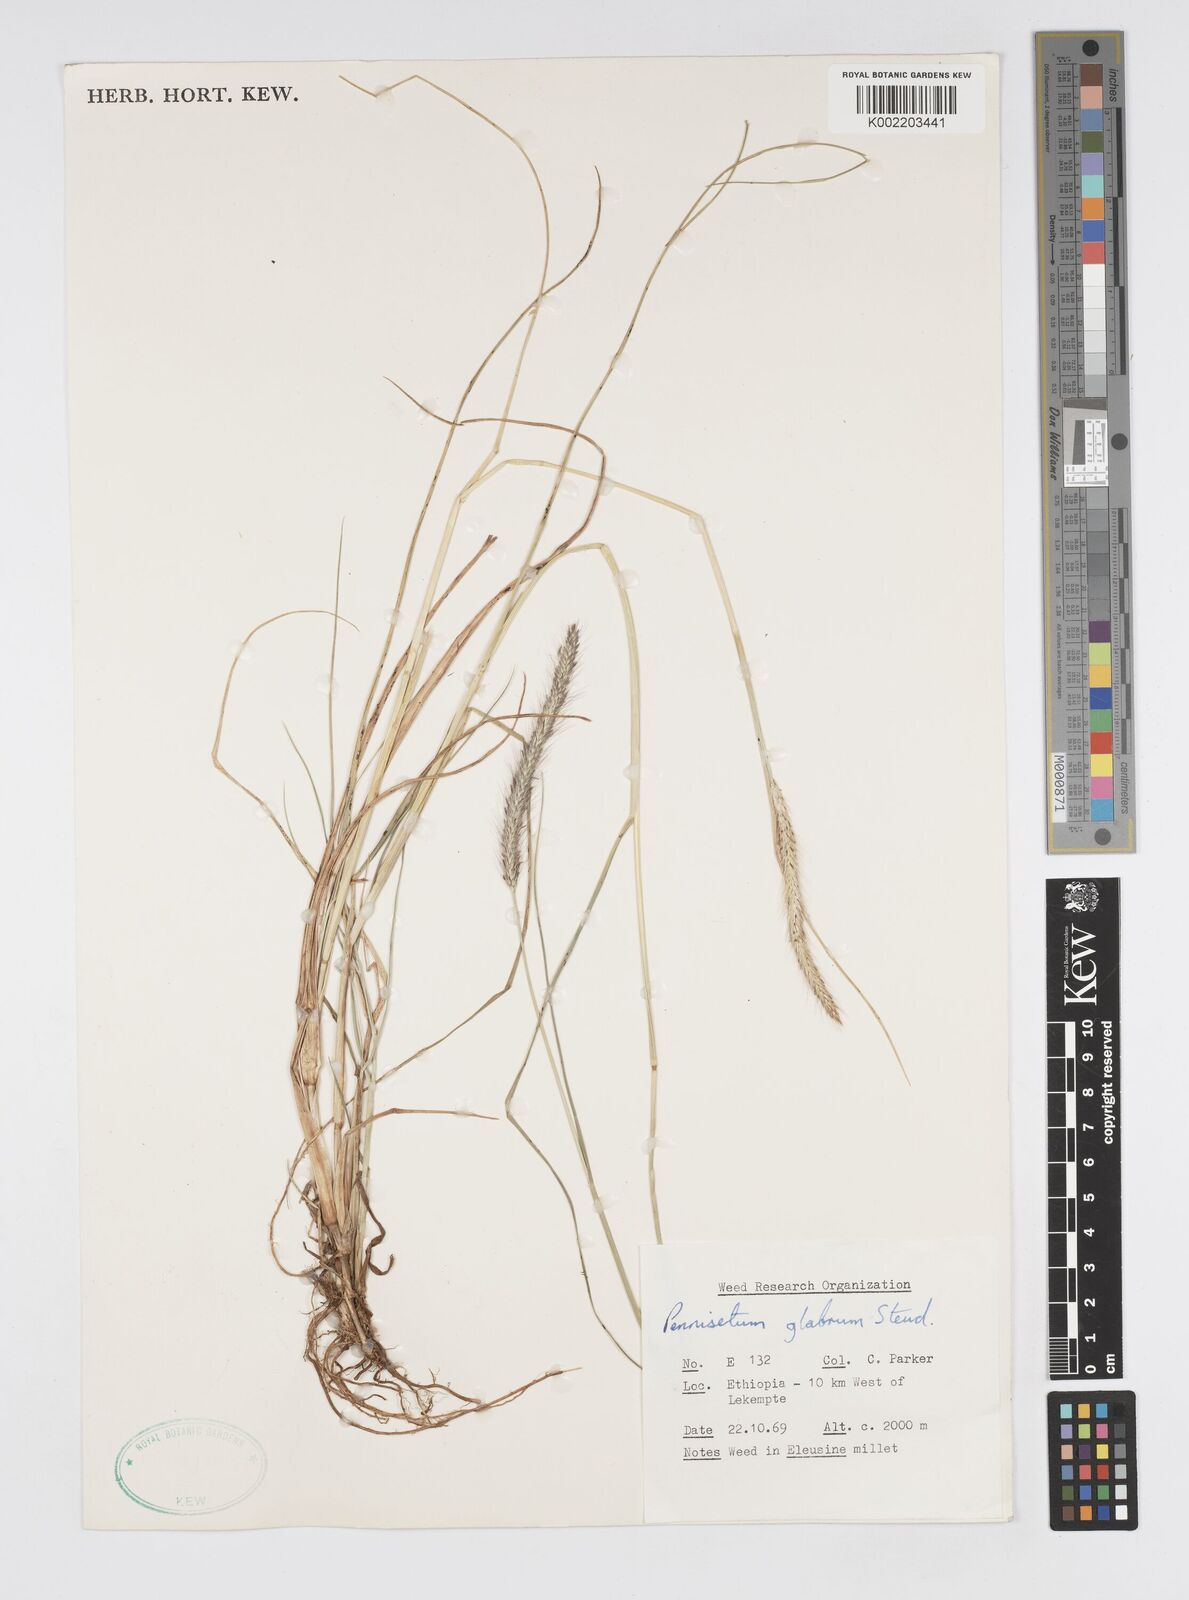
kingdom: Plantae
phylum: Tracheophyta
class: Liliopsida
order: Poales
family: Poaceae
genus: Cenchrus
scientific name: Cenchrus geniculatus
